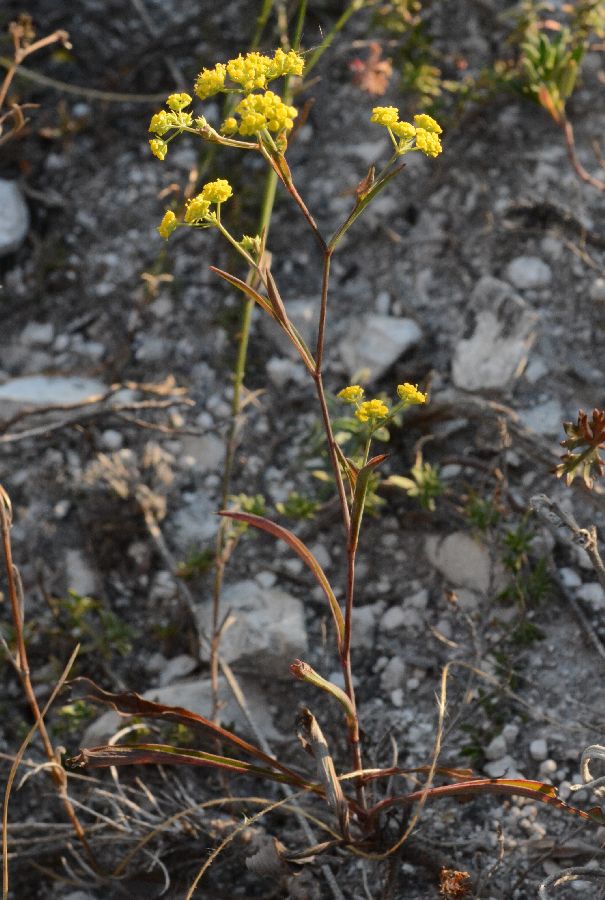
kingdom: Plantae
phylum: Tracheophyta
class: Magnoliopsida
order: Apiales
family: Apiaceae
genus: Bupleurum
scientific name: Bupleurum falcatum
